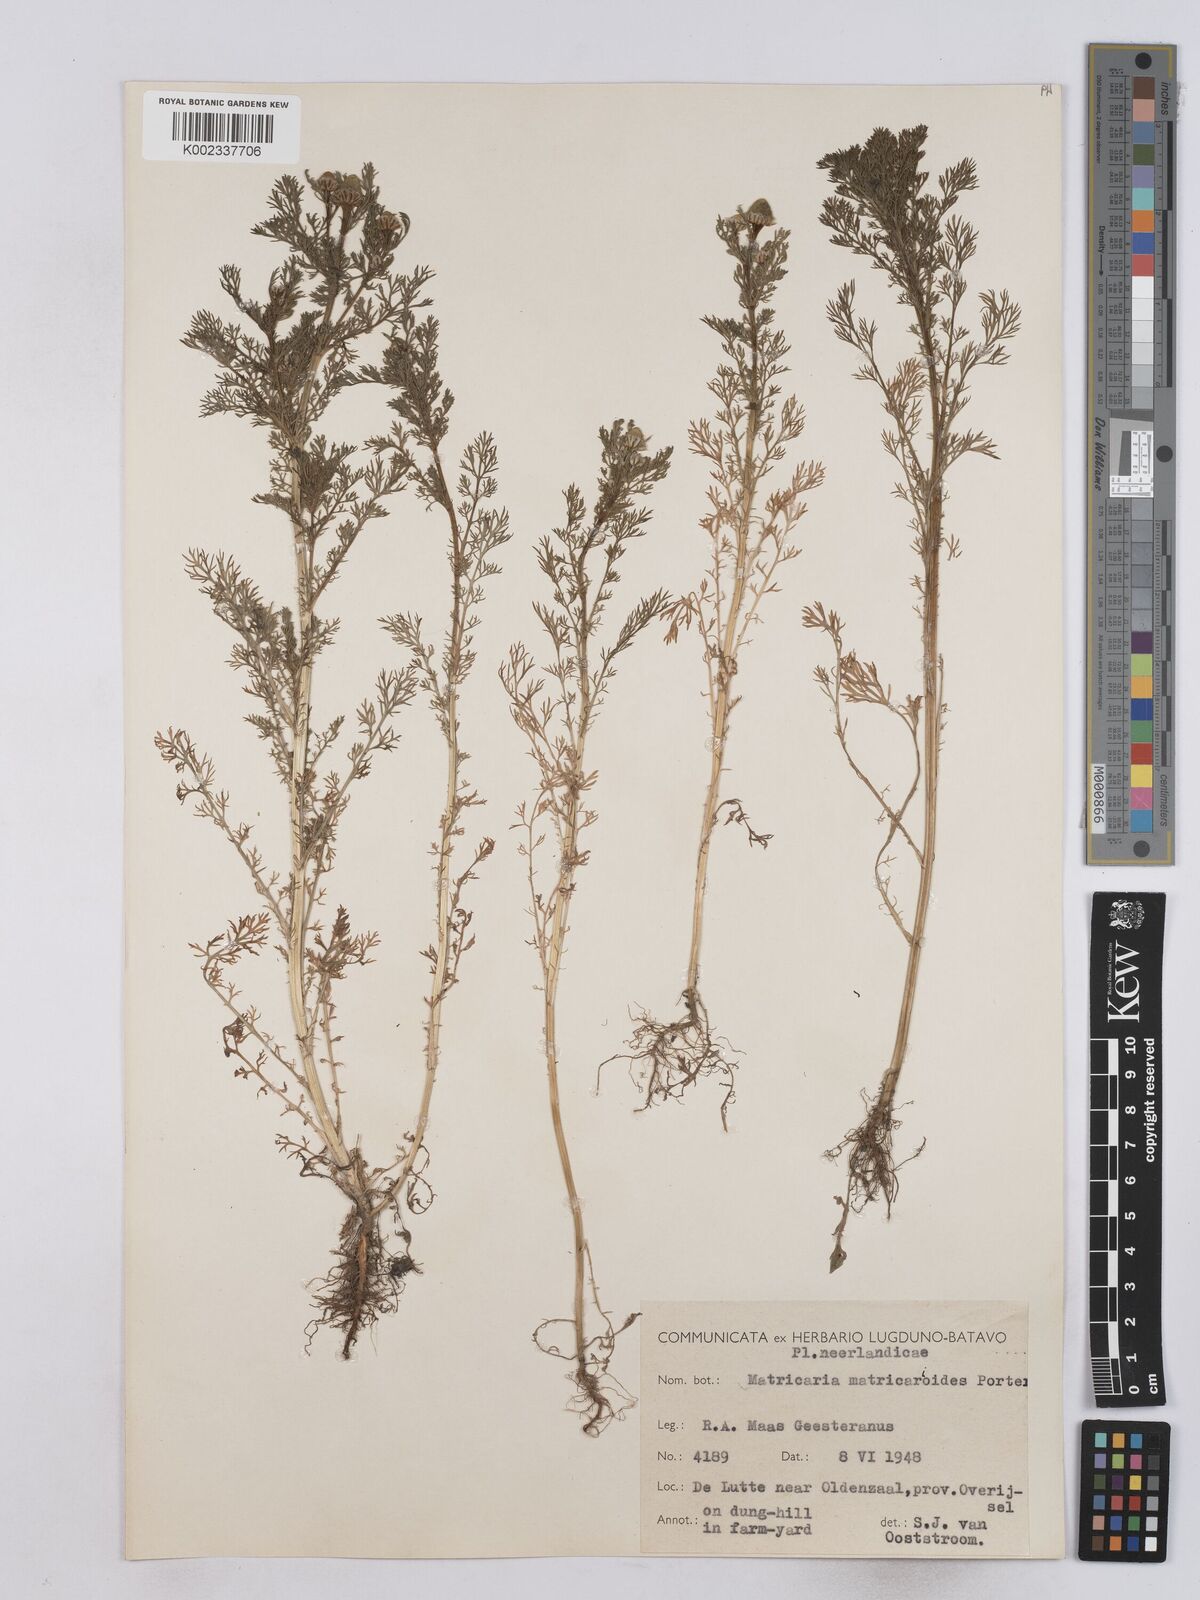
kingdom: Plantae
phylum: Tracheophyta
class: Magnoliopsida
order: Asterales
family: Asteraceae
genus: Matricaria
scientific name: Matricaria discoidea
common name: Disc mayweed
